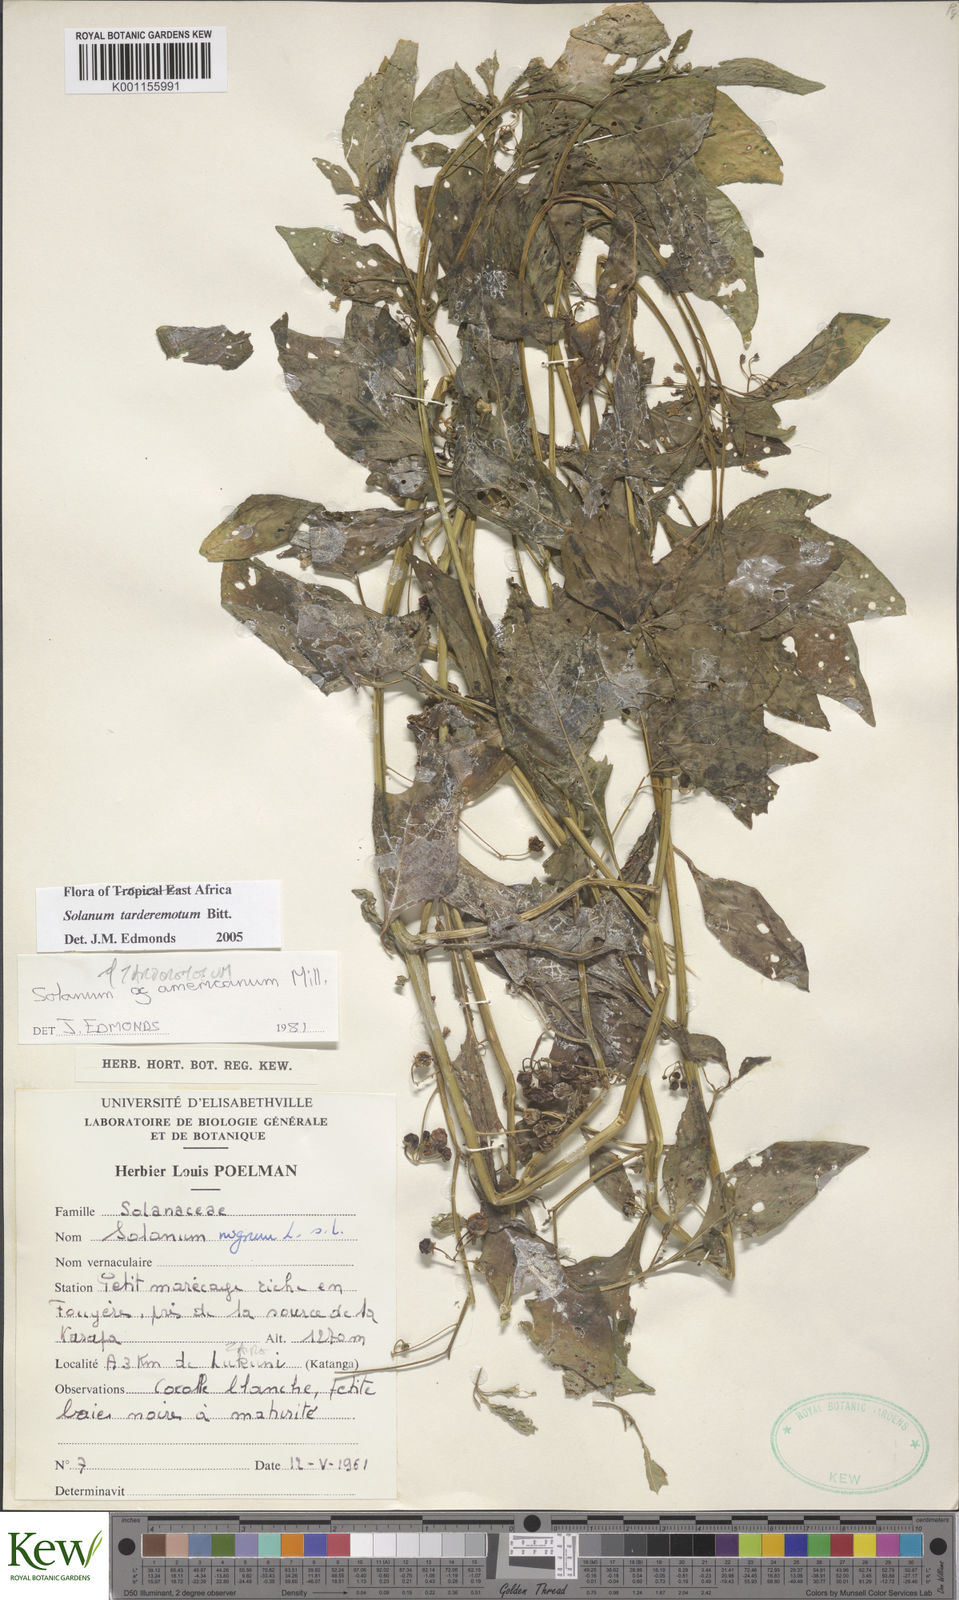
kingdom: Plantae
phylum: Tracheophyta
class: Magnoliopsida
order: Solanales
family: Solanaceae
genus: Solanum
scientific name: Solanum tarderemotum
